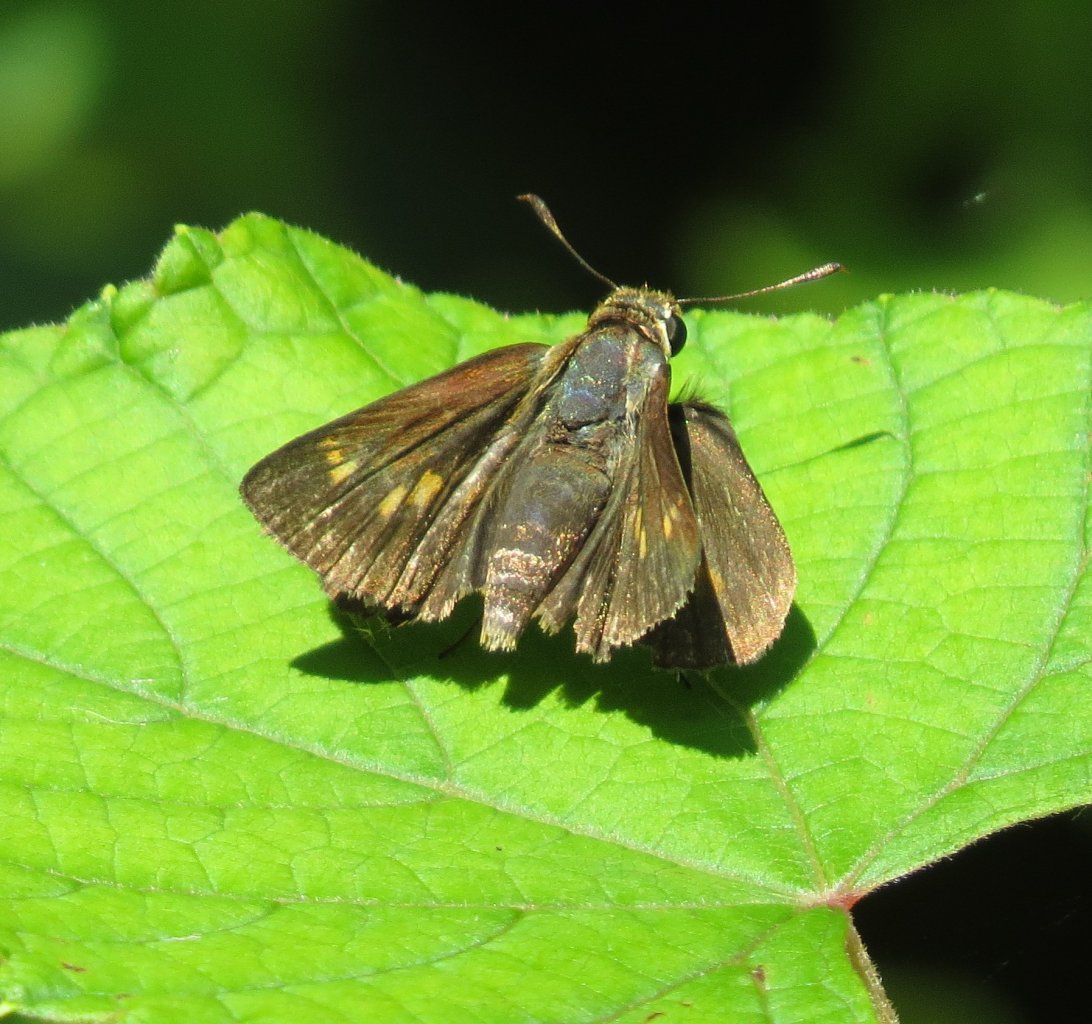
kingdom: Animalia
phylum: Arthropoda
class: Insecta
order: Lepidoptera
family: Hesperiidae
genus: Wallengrenia
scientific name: Wallengrenia otho
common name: Southern Broken-Dash
